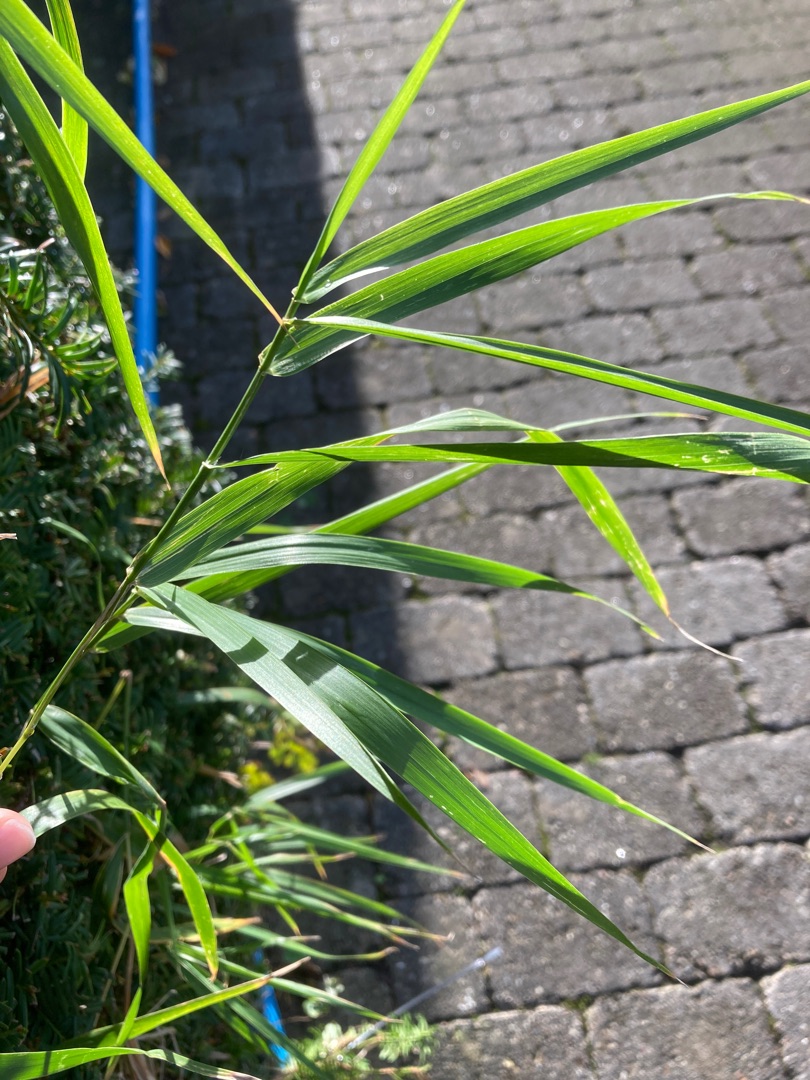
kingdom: Plantae
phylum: Tracheophyta
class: Liliopsida
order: Poales
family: Poaceae
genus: Phragmites
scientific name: Phragmites australis
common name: Tagrør
